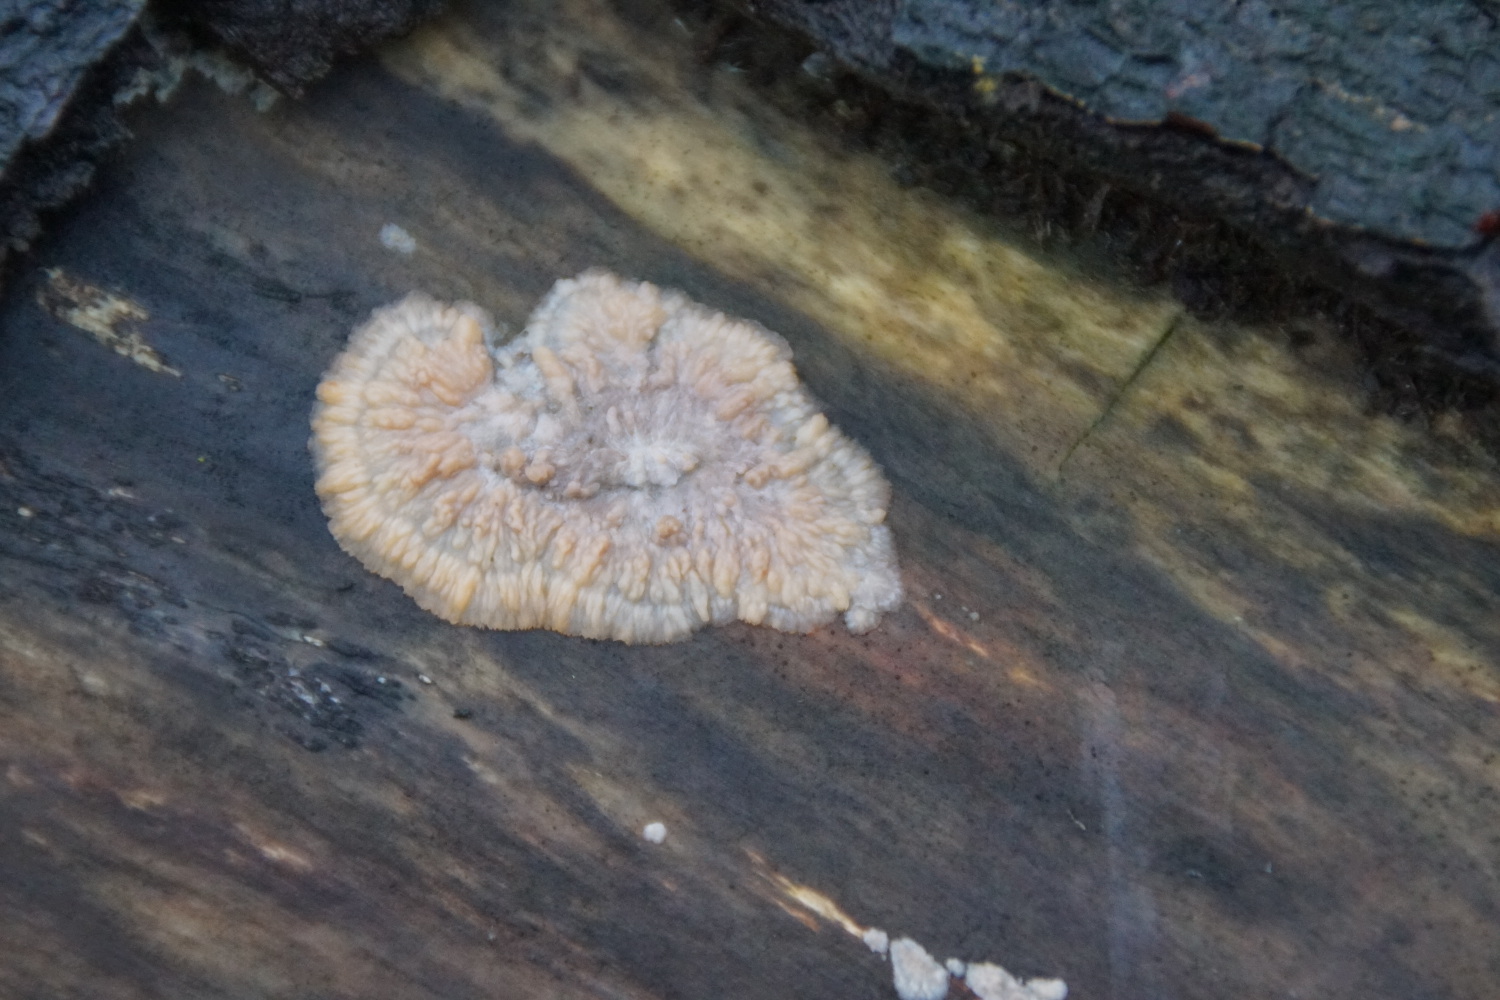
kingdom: Fungi
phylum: Basidiomycota
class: Agaricomycetes
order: Polyporales
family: Meruliaceae
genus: Phlebia
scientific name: Phlebia radiata
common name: stråle-åresvamp
